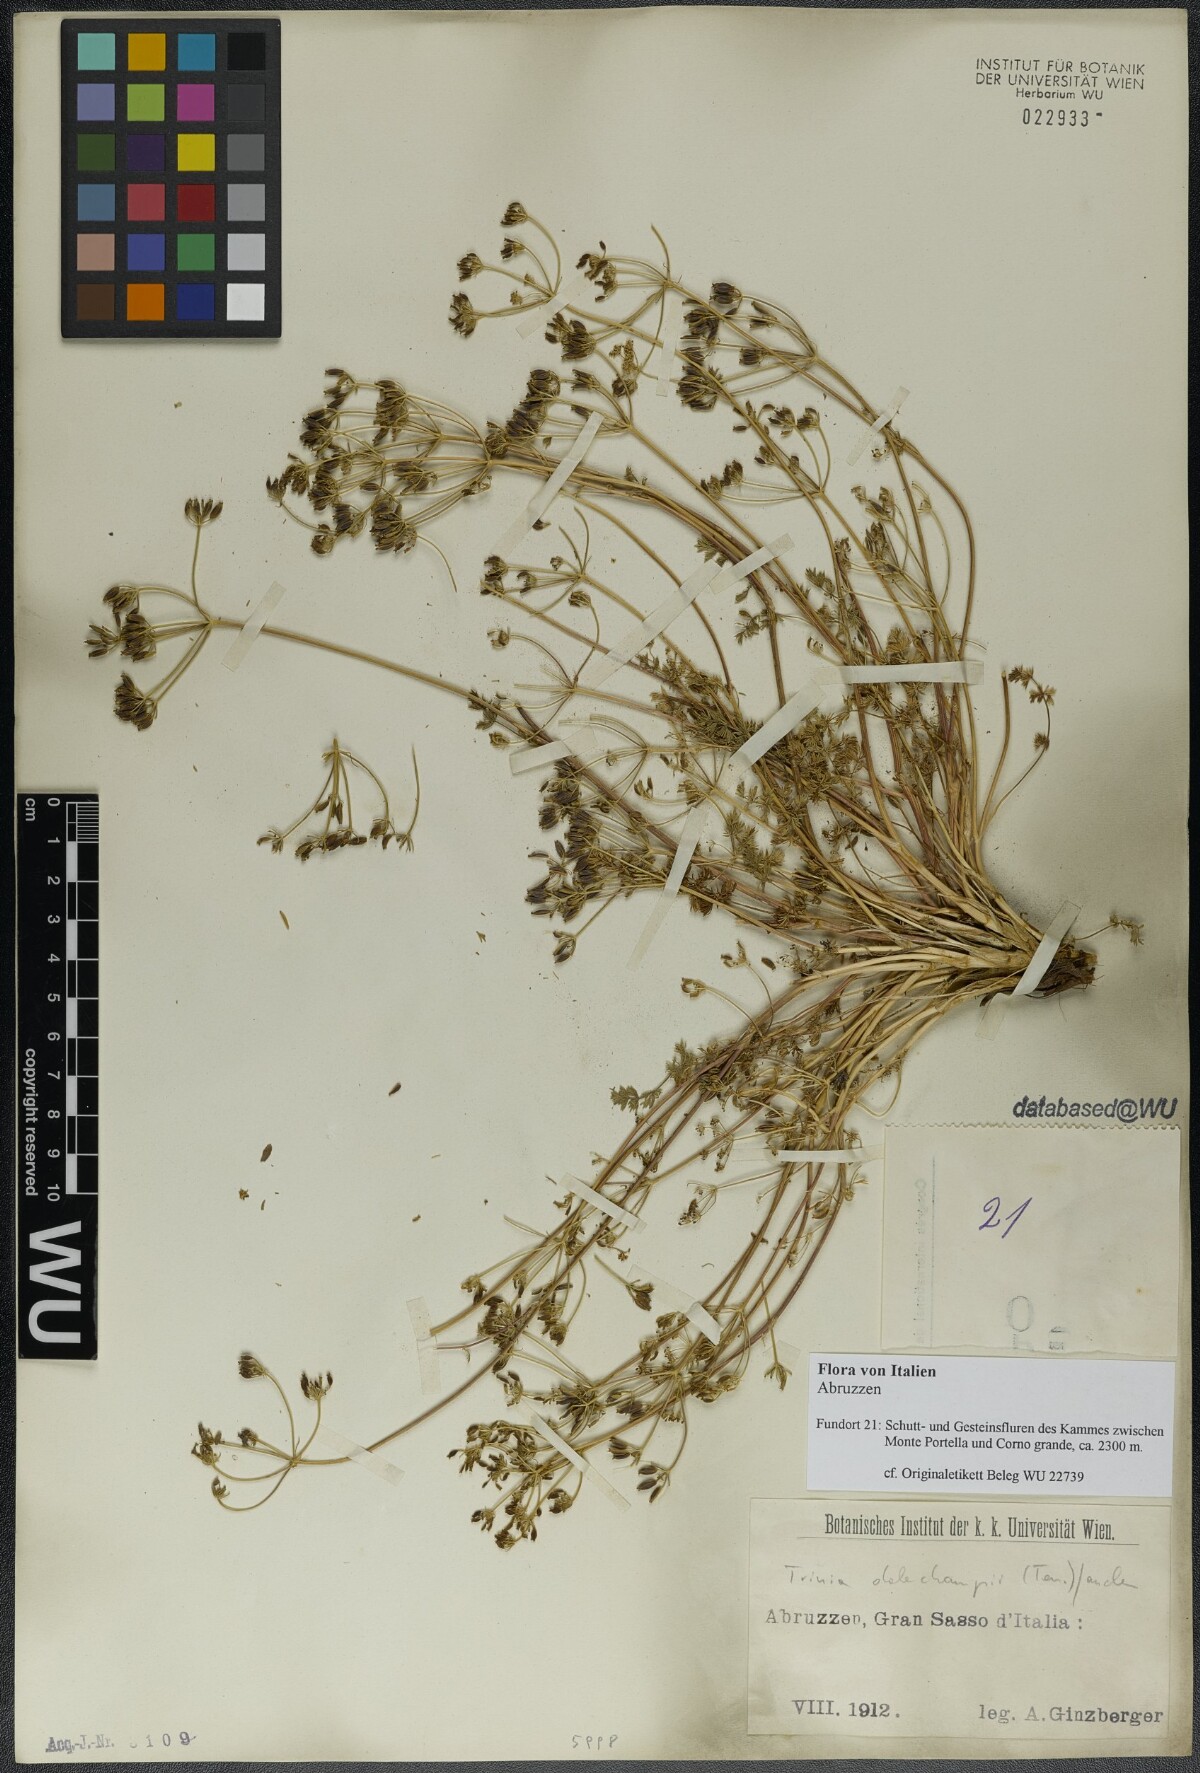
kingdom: Plantae
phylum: Tracheophyta
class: Magnoliopsida
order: Apiales
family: Apiaceae
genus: Trinia
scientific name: Trinia dalechampii
